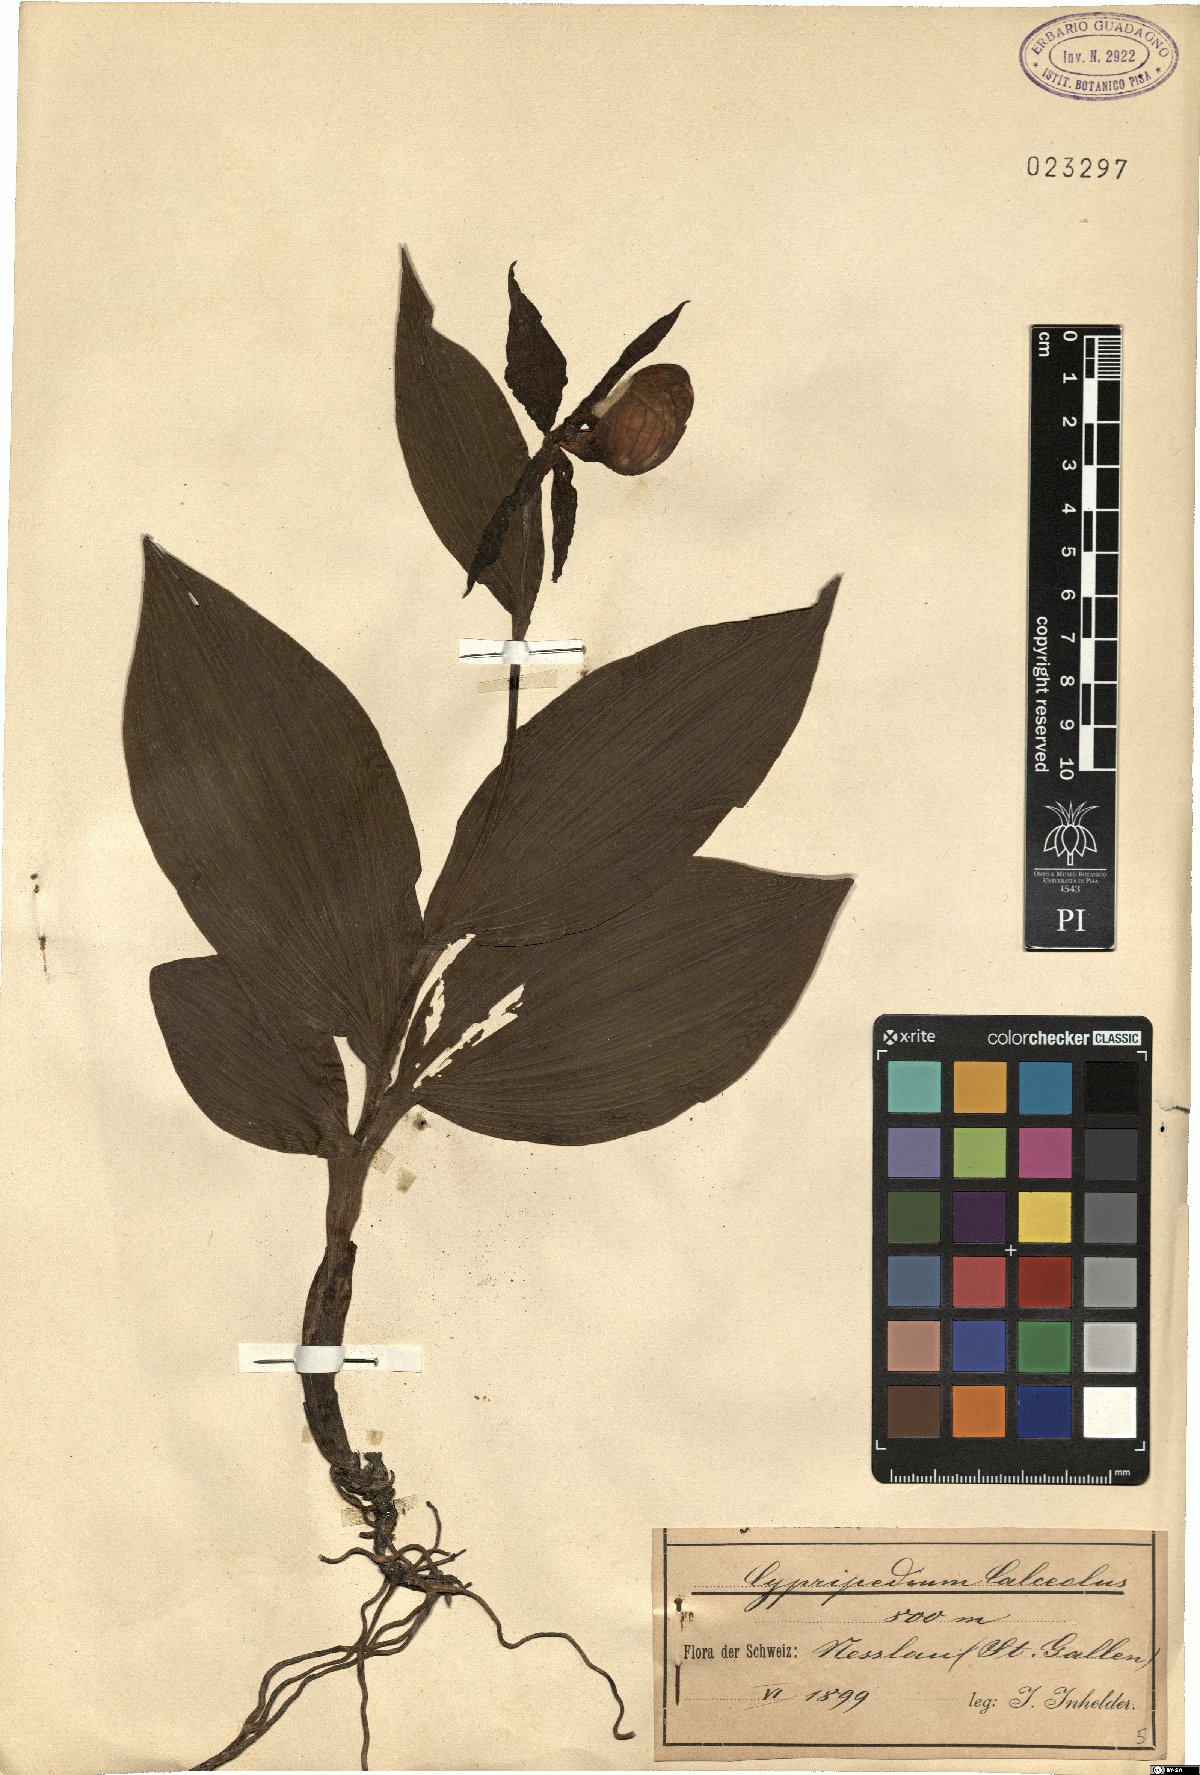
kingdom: Plantae
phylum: Tracheophyta
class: Liliopsida
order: Asparagales
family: Orchidaceae
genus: Cypripedium
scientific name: Cypripedium calceolus
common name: Lady's-slipper
